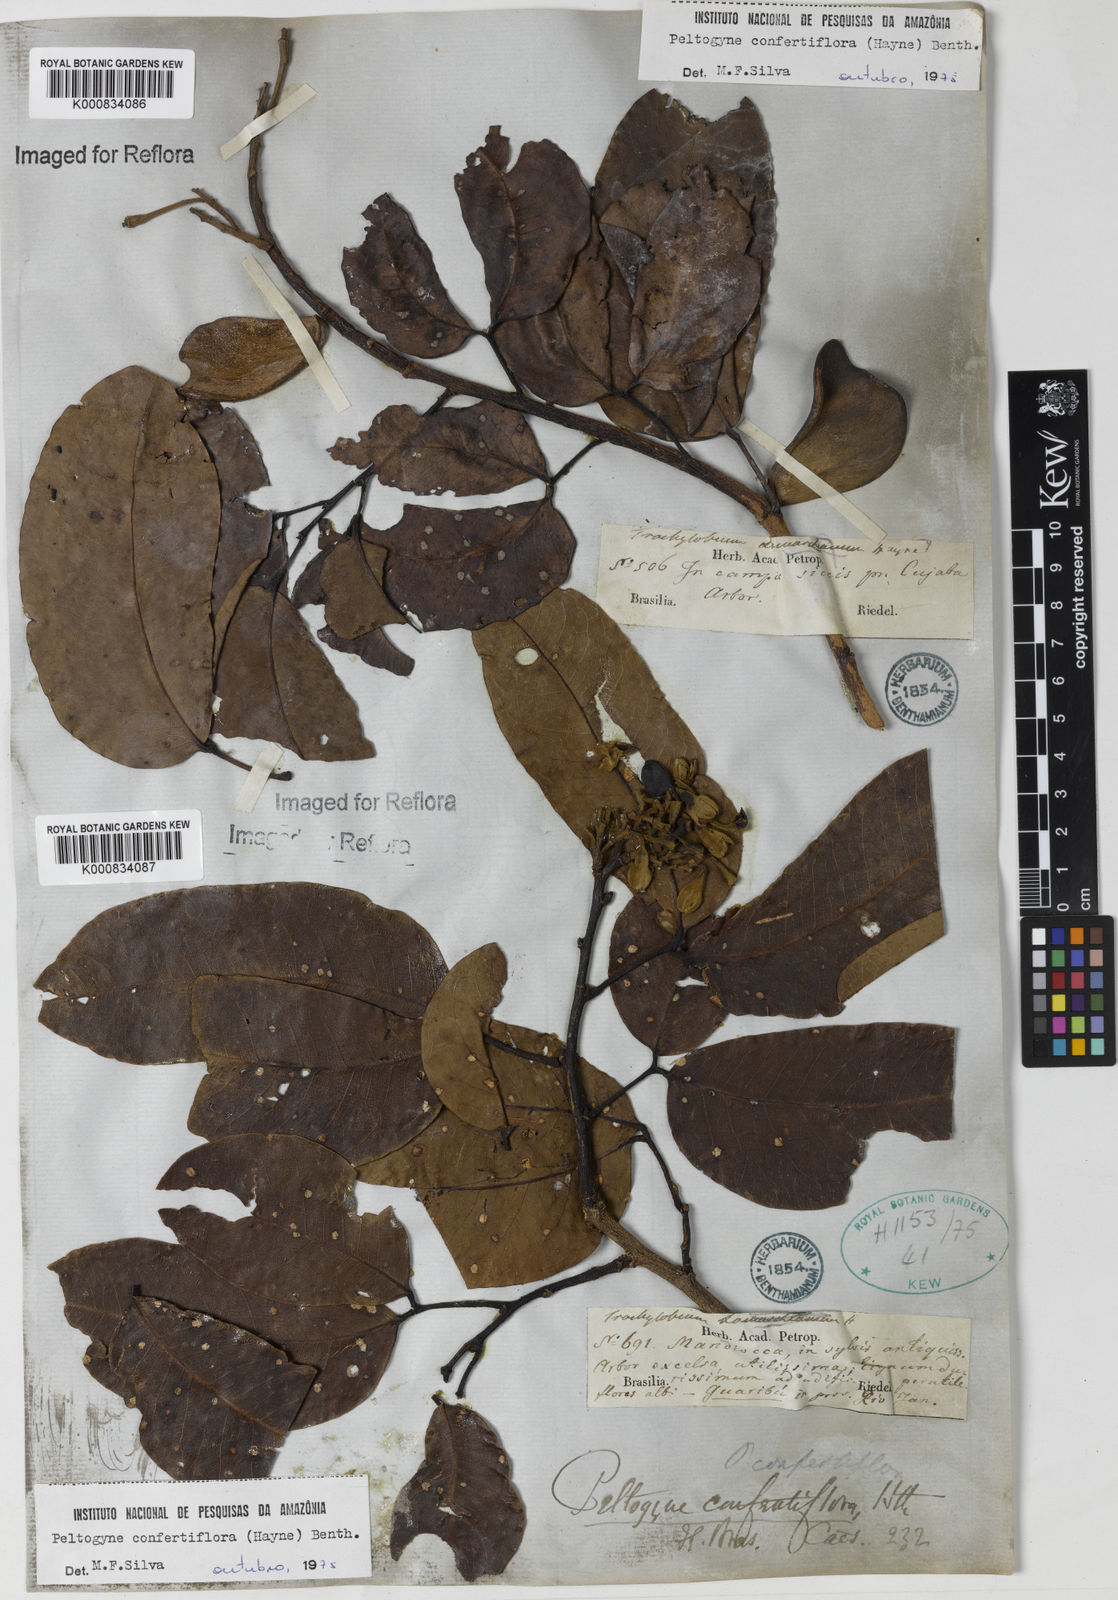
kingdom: Plantae
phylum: Tracheophyta
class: Magnoliopsida
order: Fabales
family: Fabaceae
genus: Peltogyne
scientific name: Peltogyne confertiflora
